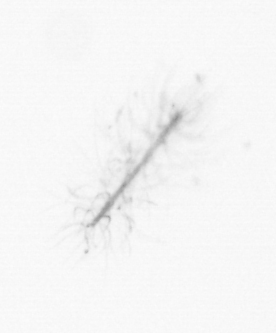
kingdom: Chromista
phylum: Ochrophyta
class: Bacillariophyceae
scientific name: Bacillariophyceae
